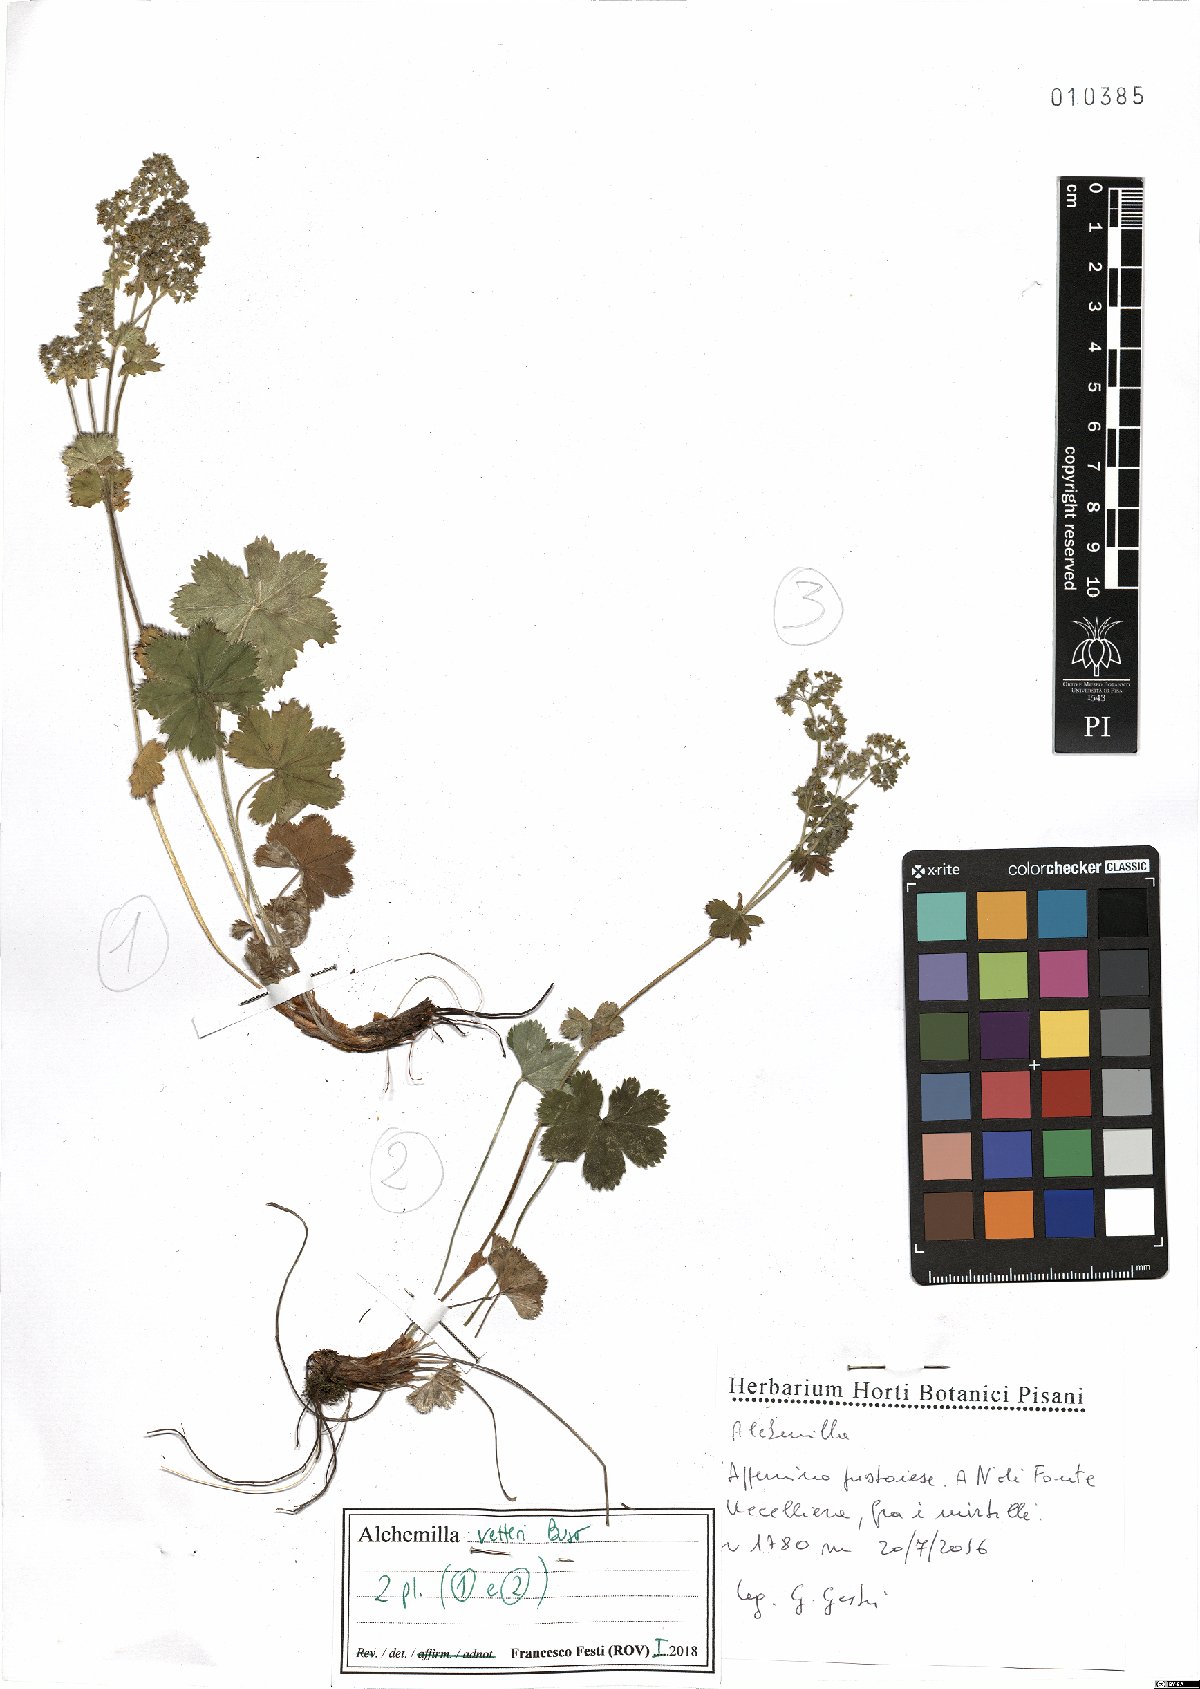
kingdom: Plantae
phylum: Tracheophyta
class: Magnoliopsida
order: Rosales
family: Rosaceae
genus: Alchemilla
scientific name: Alchemilla vetteri
